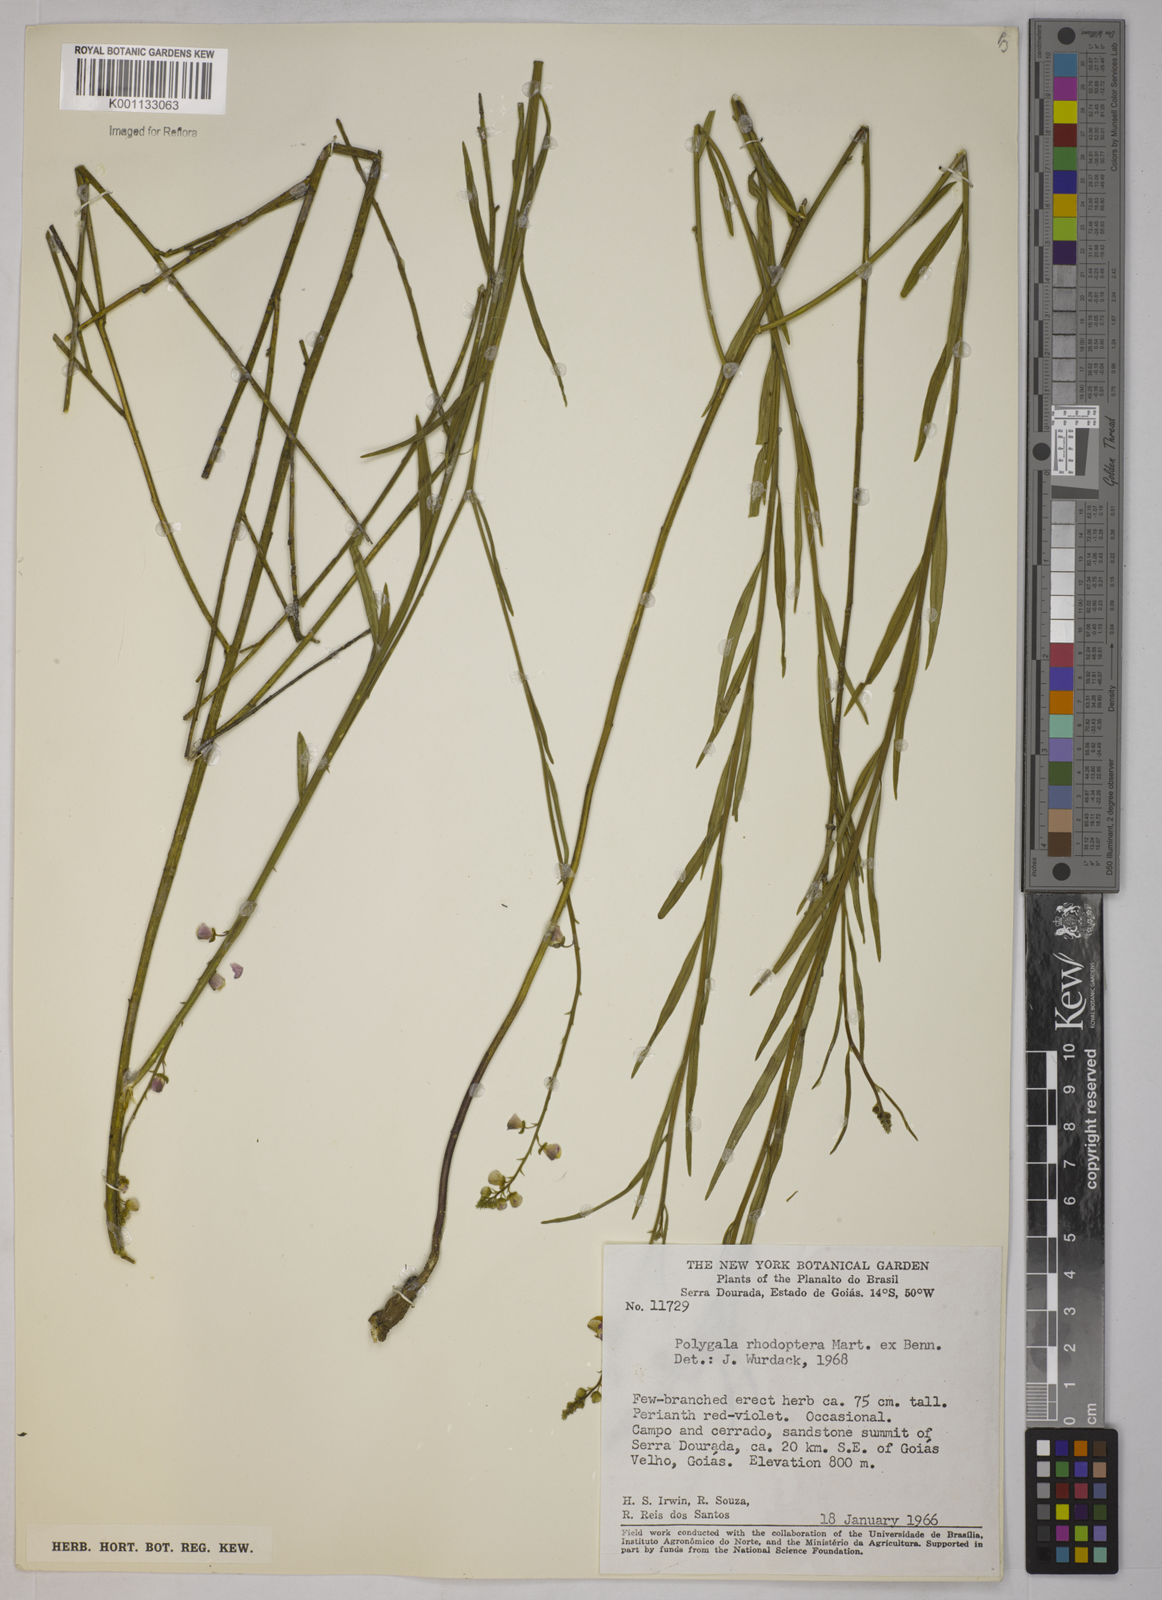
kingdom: Plantae
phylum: Tracheophyta
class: Magnoliopsida
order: Fabales
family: Polygalaceae
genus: Asemeia
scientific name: Asemeia rhodoptera
